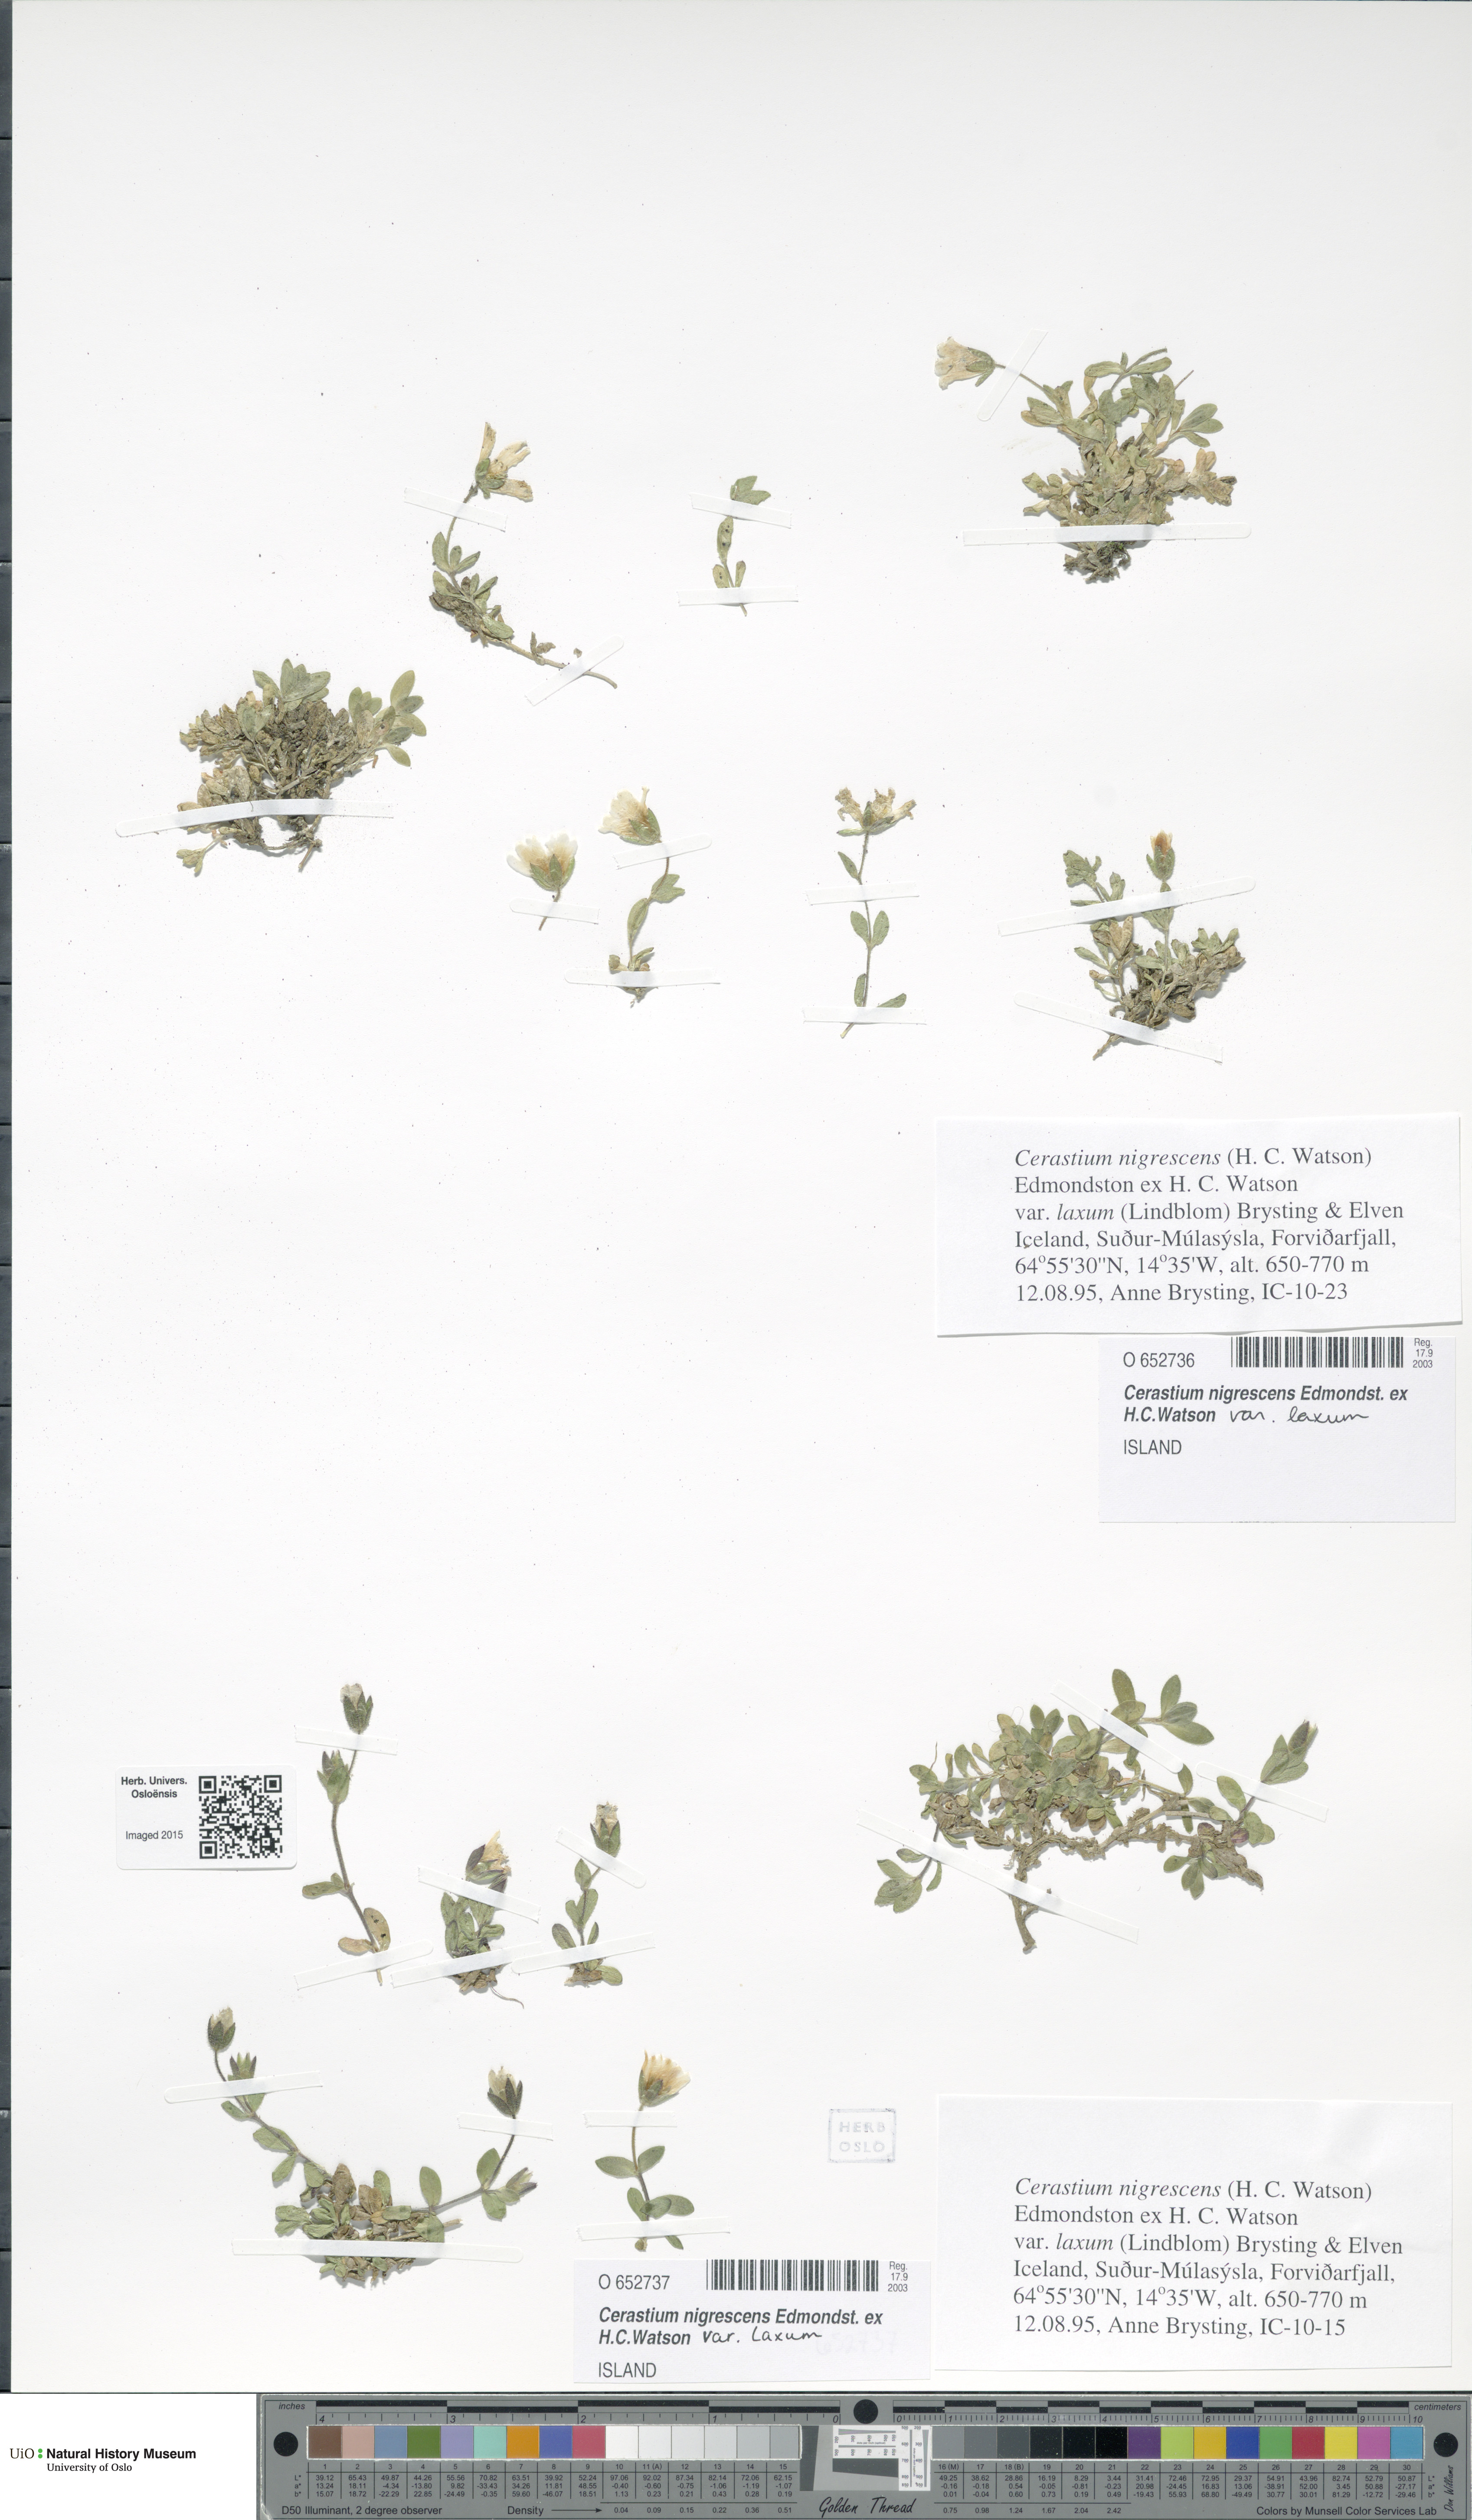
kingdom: Plantae
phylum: Tracheophyta
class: Magnoliopsida
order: Caryophyllales
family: Caryophyllaceae
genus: Cerastium
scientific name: Cerastium nigrescens
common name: Shetland mouse-ear
